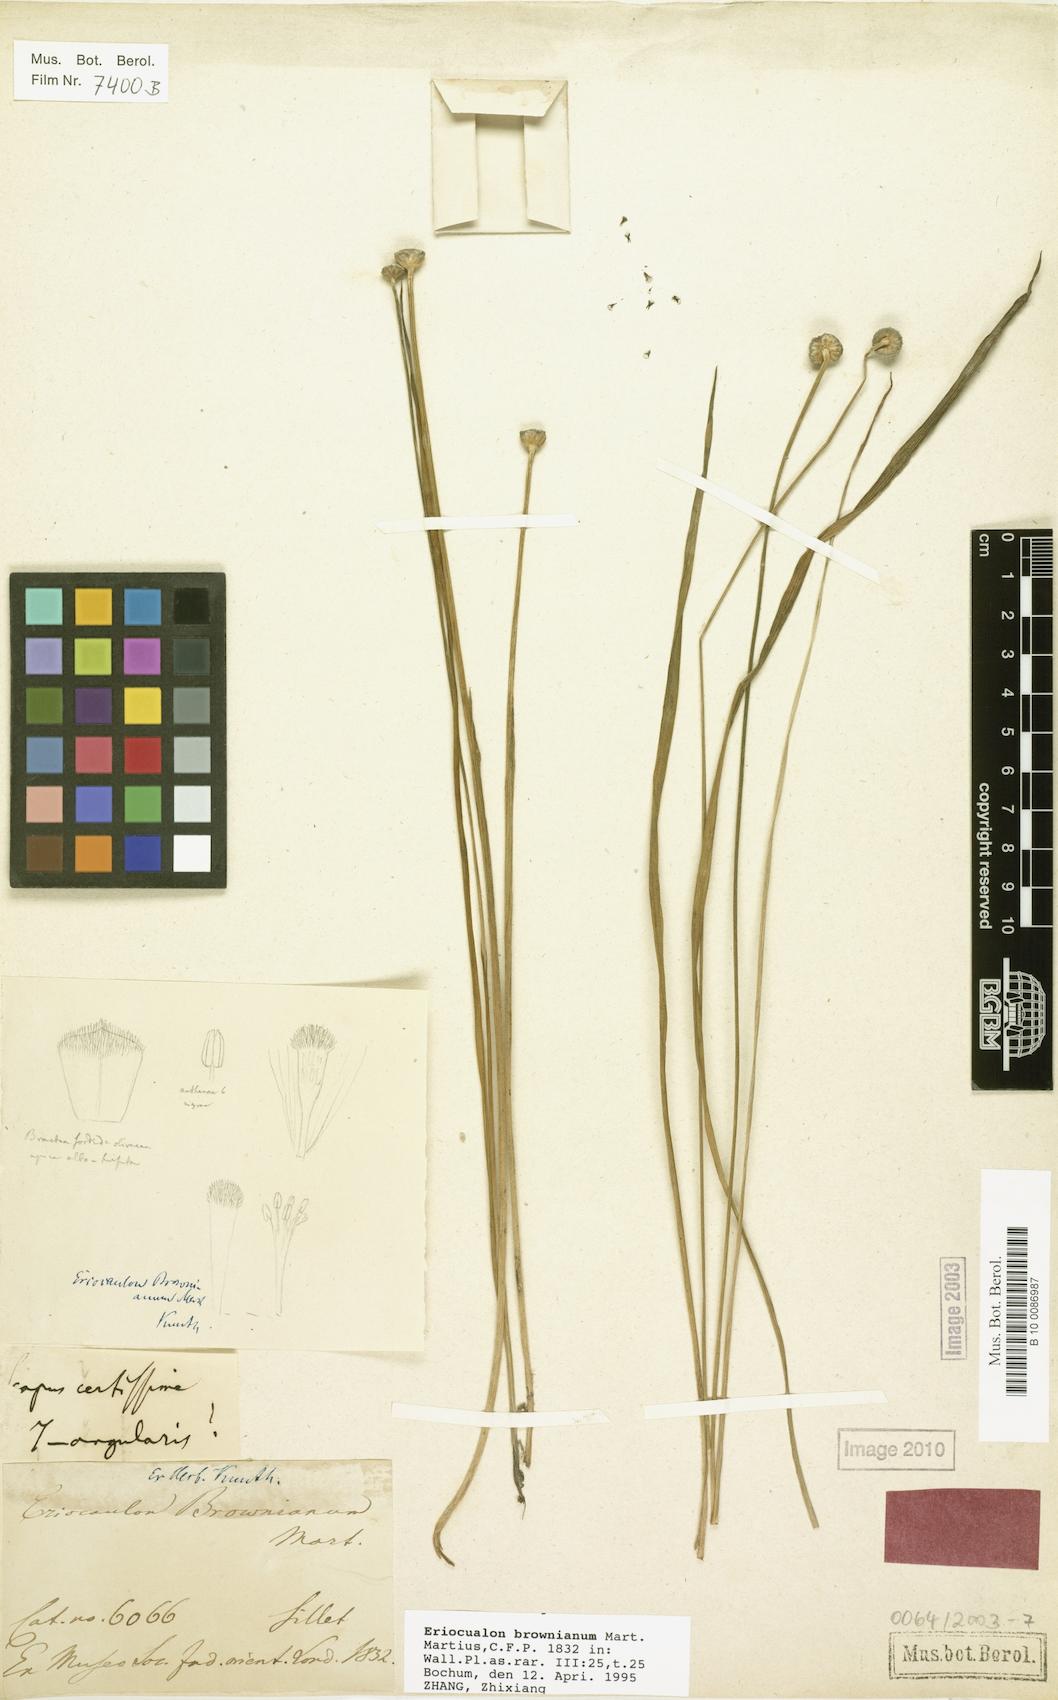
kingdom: Plantae
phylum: Tracheophyta
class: Liliopsida
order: Poales
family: Eriocaulaceae
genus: Eriocaulon
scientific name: Eriocaulon brownianum
